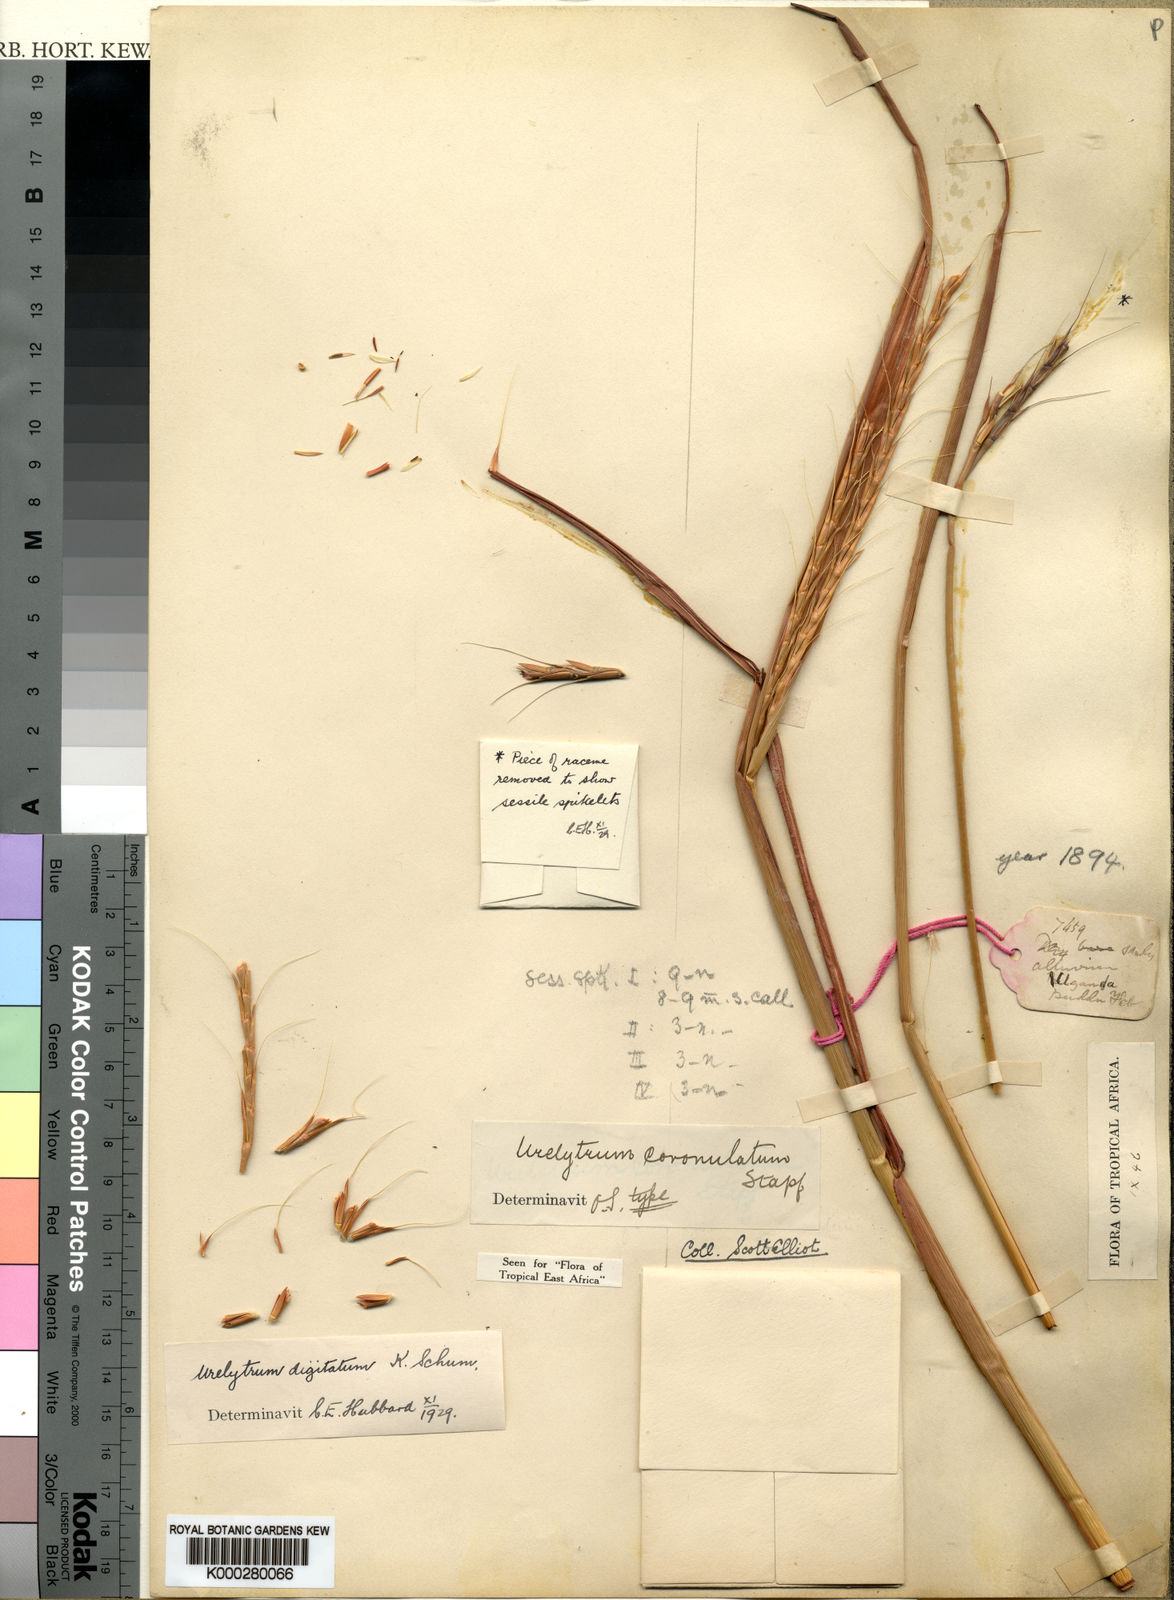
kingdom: Plantae
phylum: Tracheophyta
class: Liliopsida
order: Poales
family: Poaceae
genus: Urelytrum
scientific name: Urelytrum digitatum
